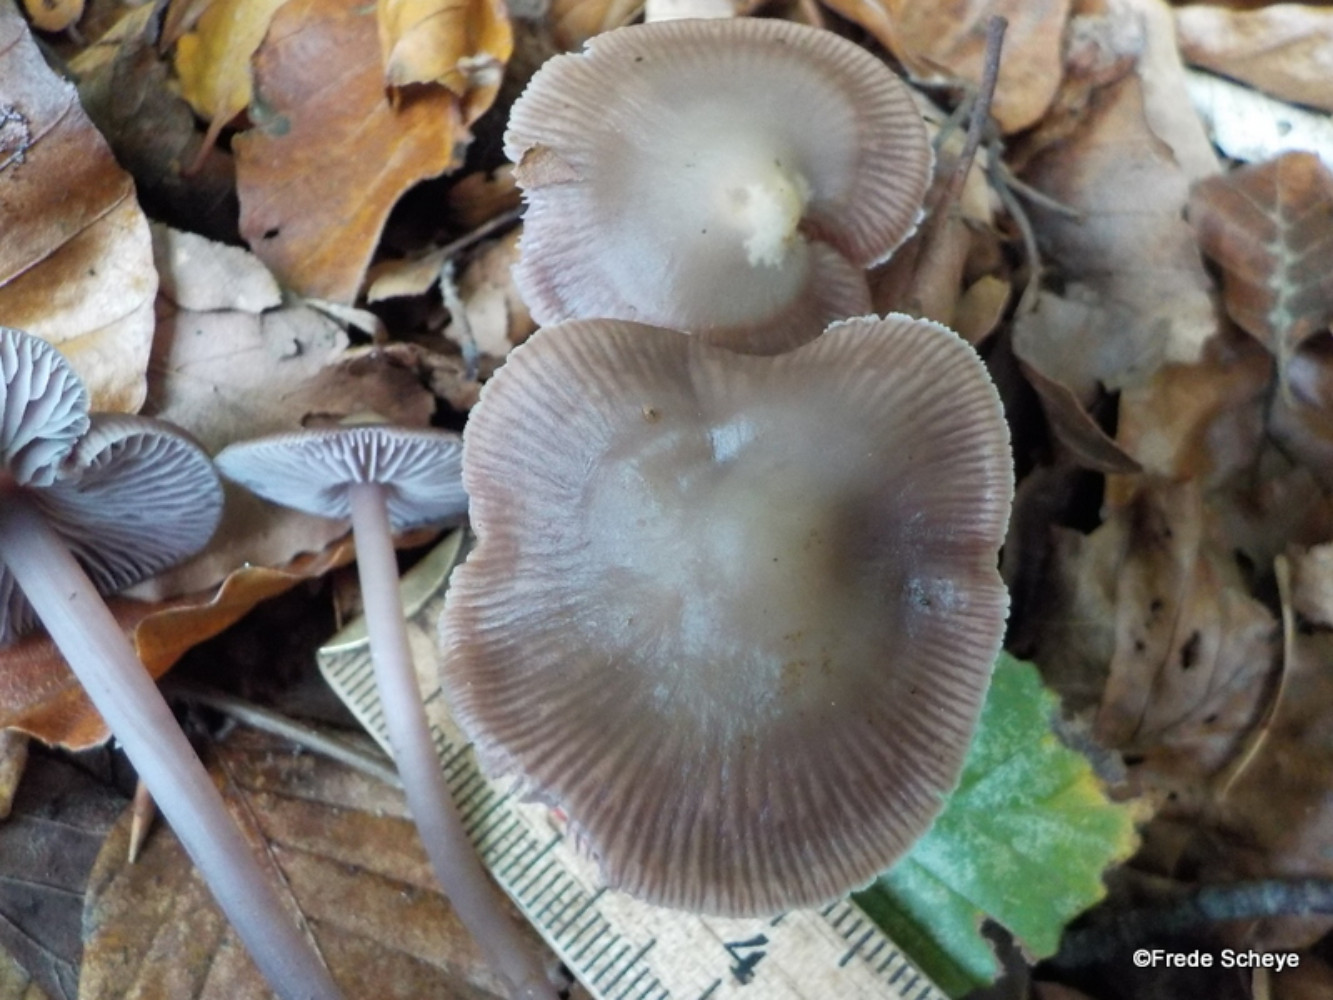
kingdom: Fungi
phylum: Basidiomycota
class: Agaricomycetes
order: Agaricales
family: Mycenaceae
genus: Prunulus
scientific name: Prunulus diosmus
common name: tobaks-huesvamp
